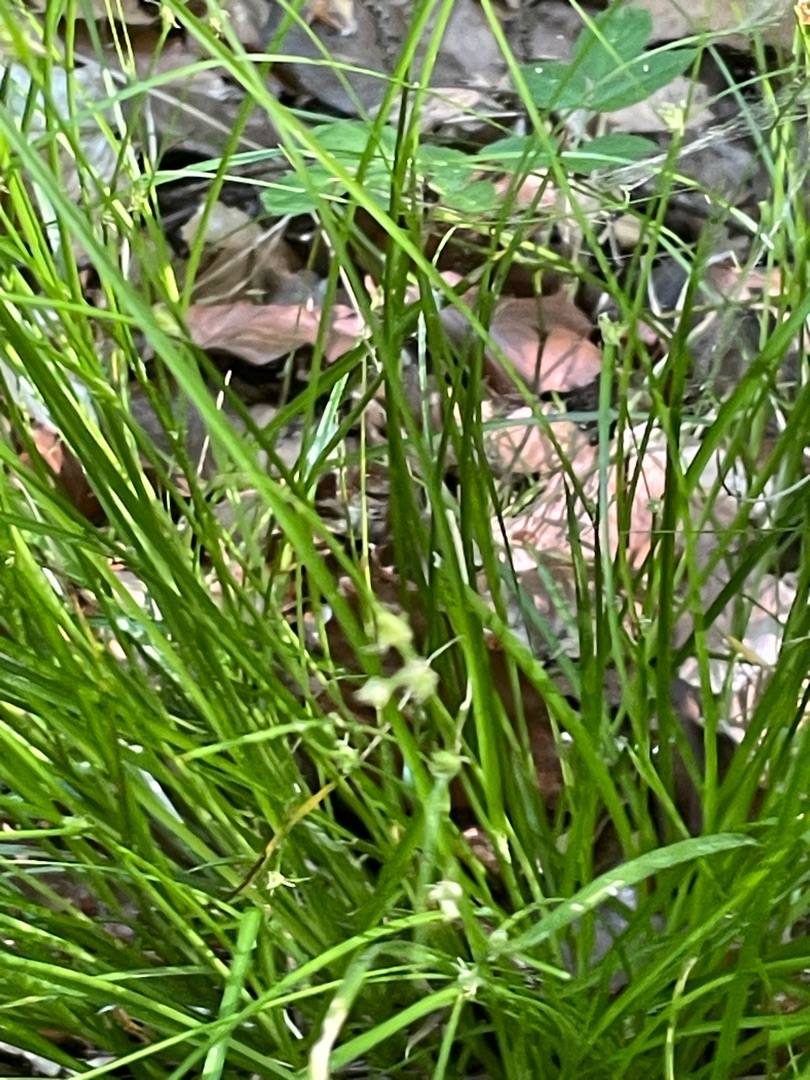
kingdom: Plantae
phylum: Tracheophyta
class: Liliopsida
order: Poales
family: Cyperaceae
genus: Carex
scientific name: Carex remota
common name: Akselblomstret star
